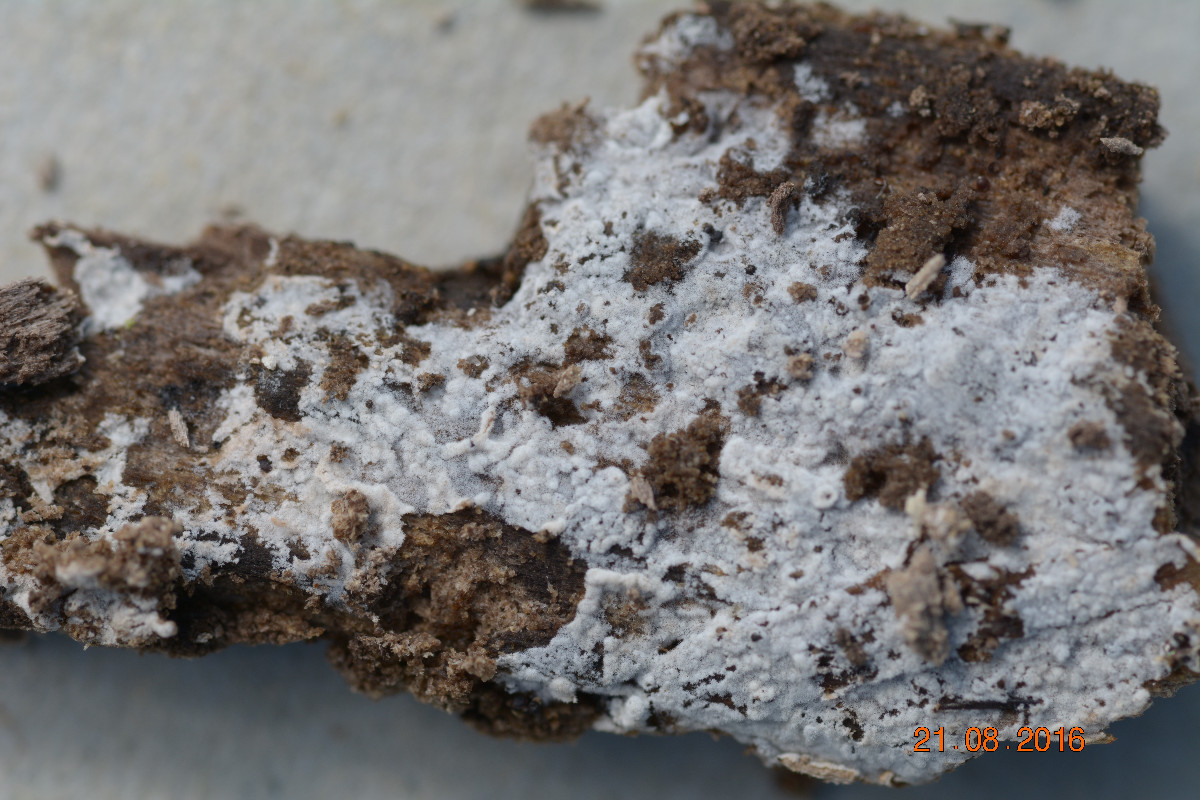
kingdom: Fungi
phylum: Basidiomycota
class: Agaricomycetes
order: Trechisporales
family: Hydnodontaceae
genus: Subulicystidium
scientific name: Subulicystidium longisporum
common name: almindelig pigtrådshinde
